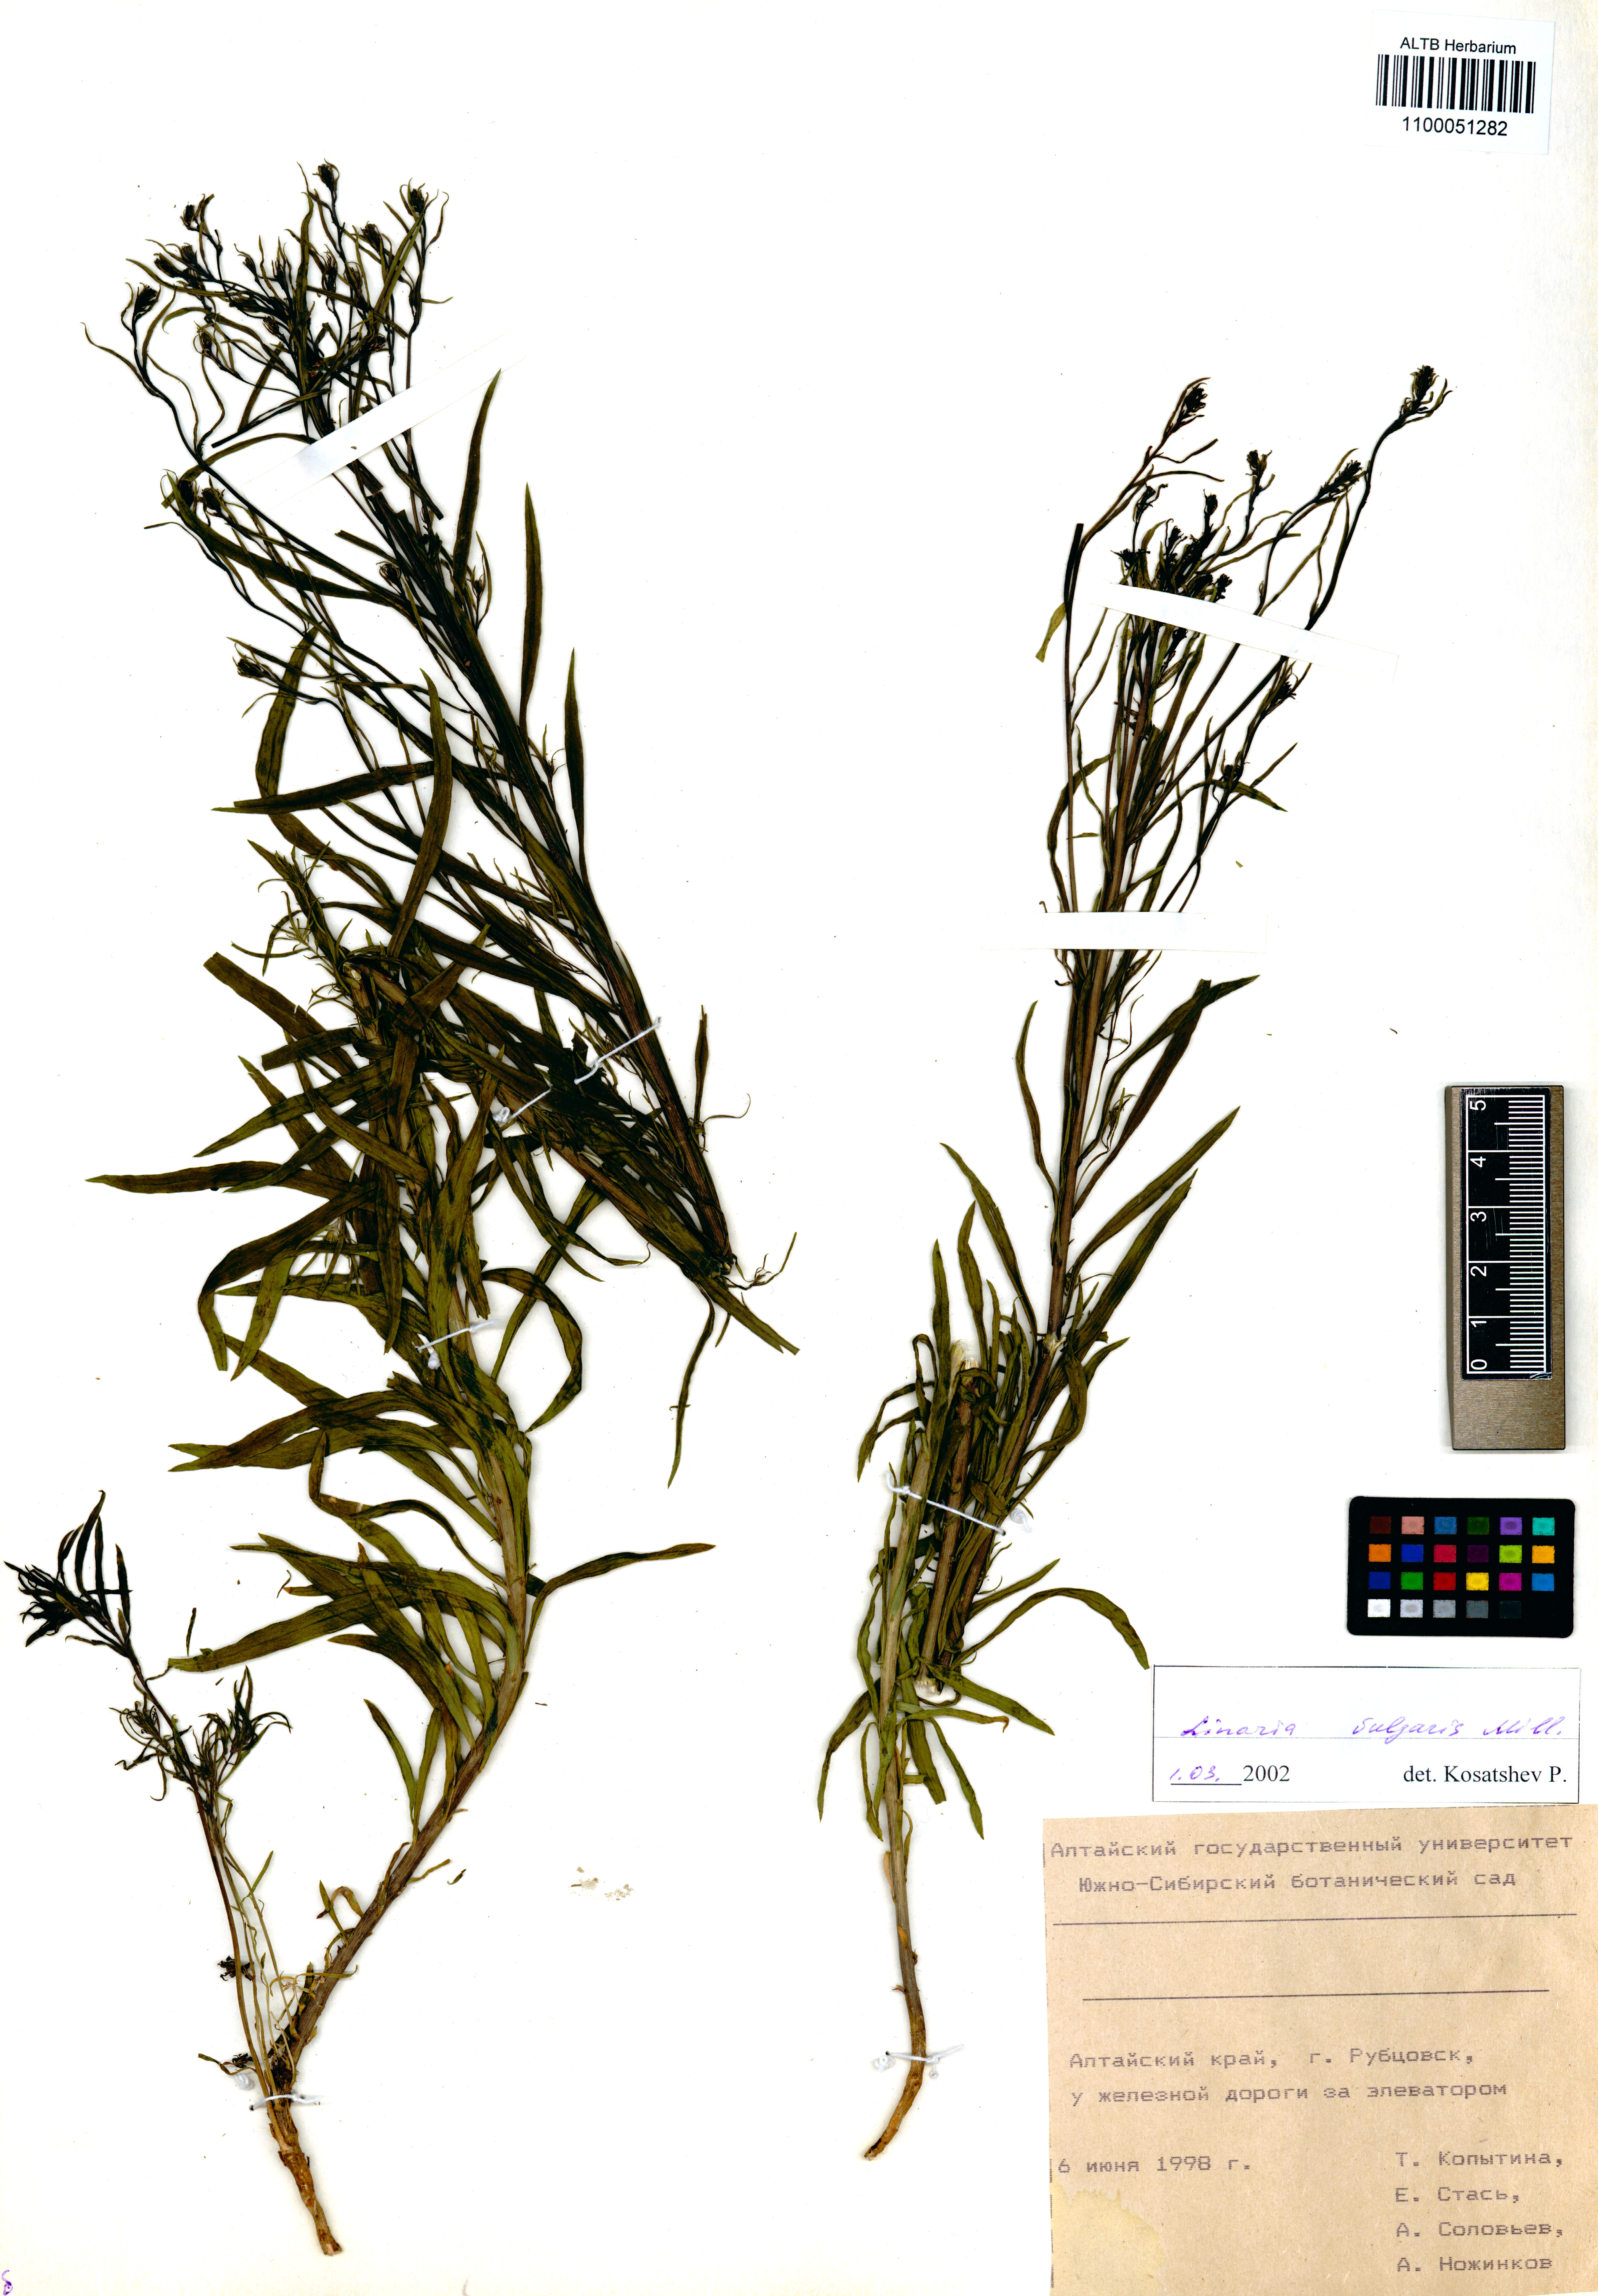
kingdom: Plantae
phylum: Tracheophyta
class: Magnoliopsida
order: Lamiales
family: Plantaginaceae
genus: Linaria
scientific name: Linaria vulgaris
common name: Butter and eggs
